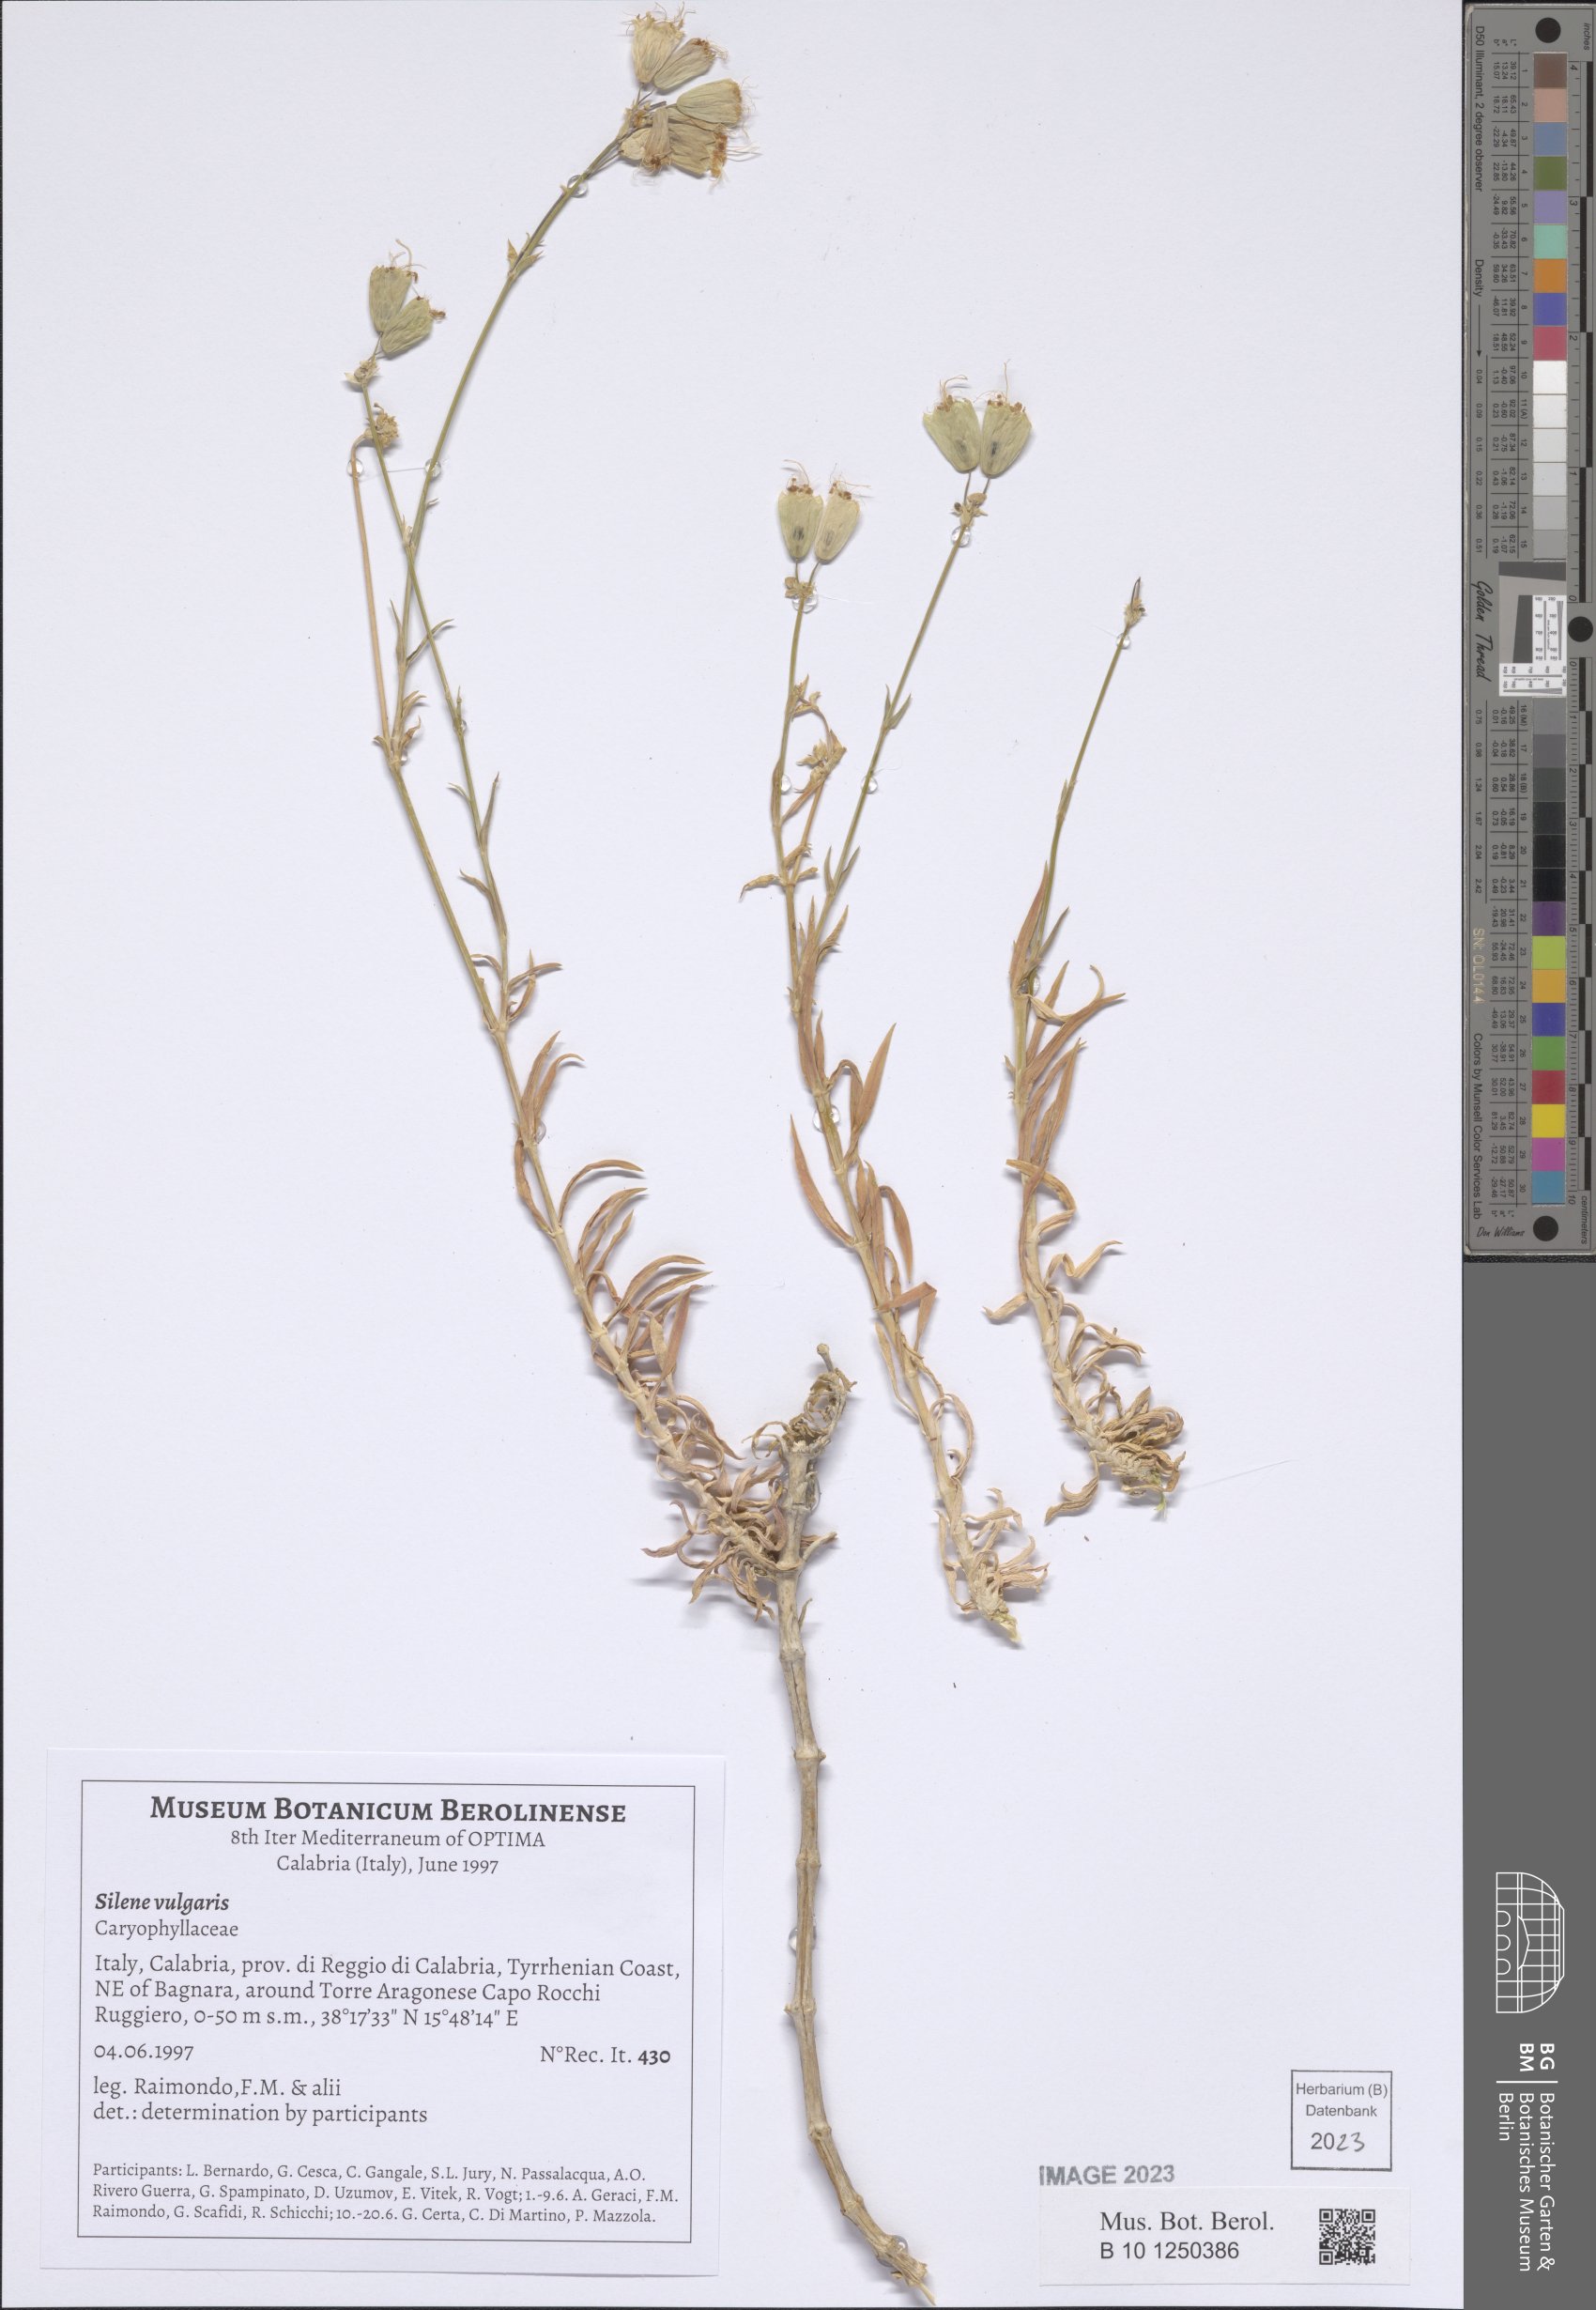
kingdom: Plantae
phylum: Tracheophyta
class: Magnoliopsida
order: Caryophyllales
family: Caryophyllaceae
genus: Silene
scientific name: Silene vulgaris
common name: Bladder campion
